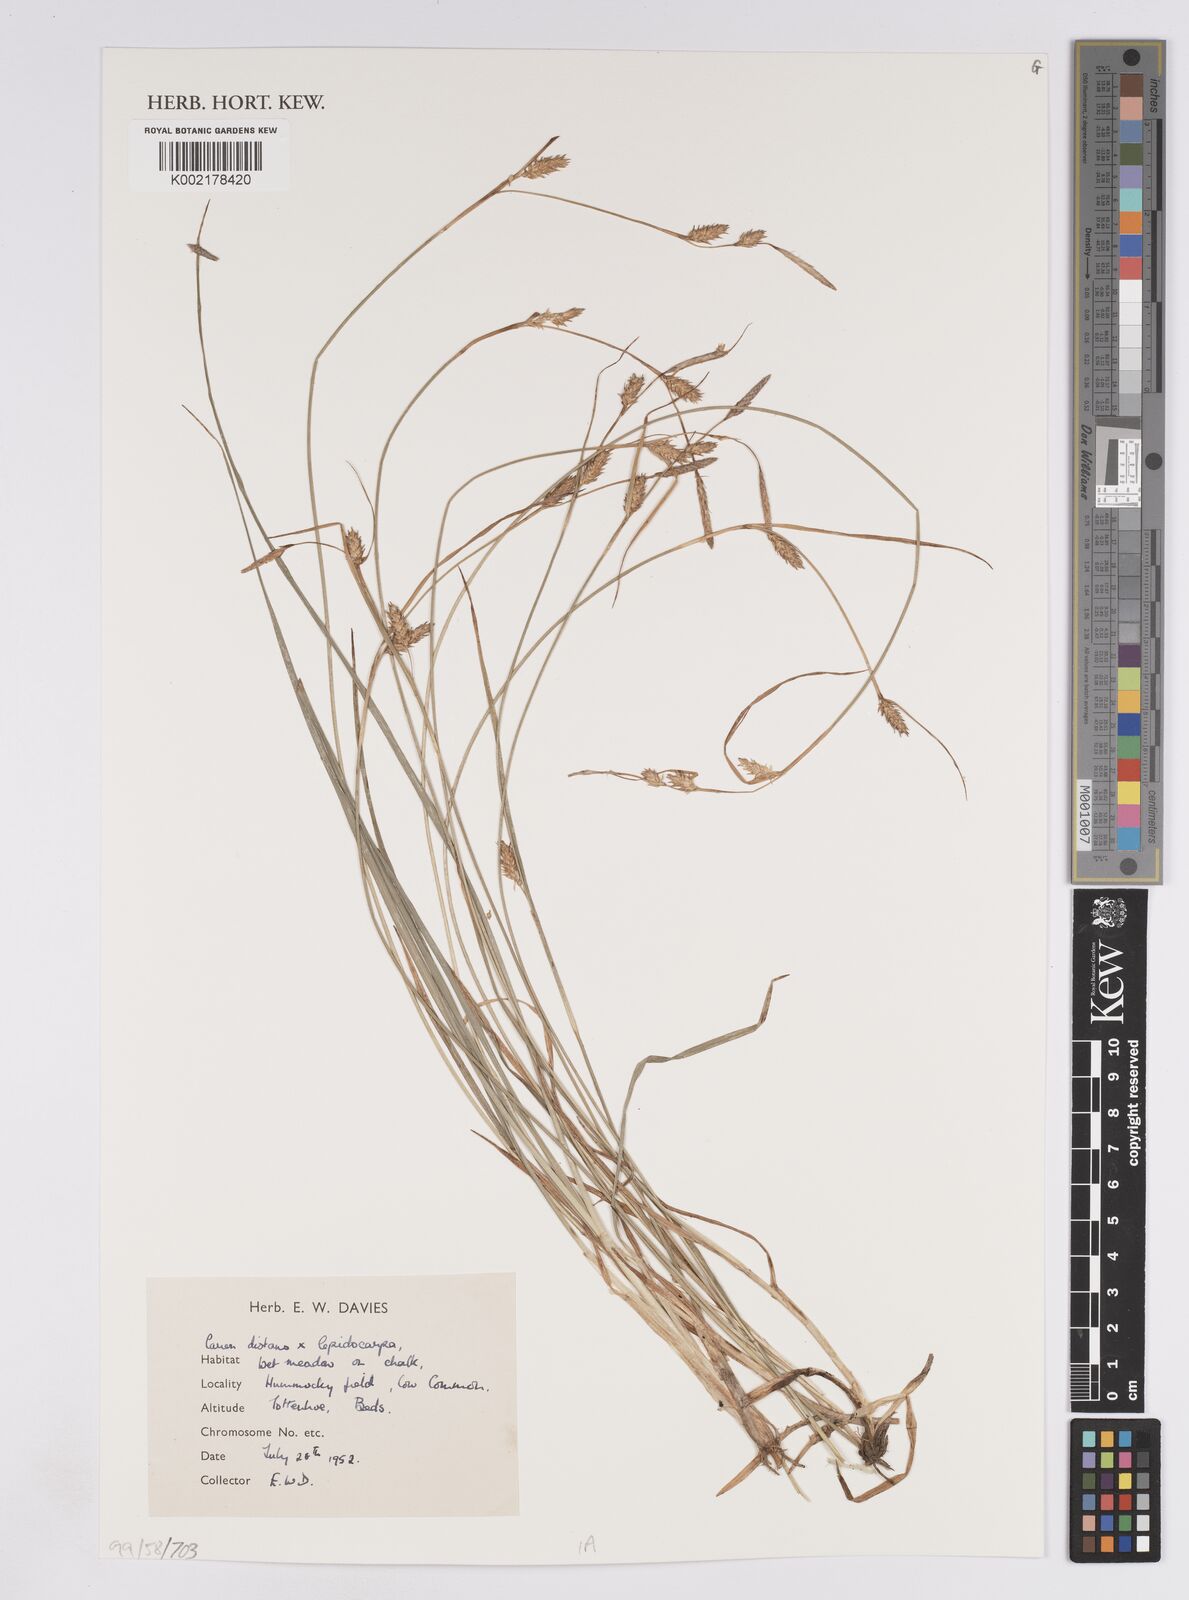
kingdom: Plantae
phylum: Tracheophyta
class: Liliopsida
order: Poales
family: Cyperaceae
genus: Carex
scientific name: Carex lepidocarpa
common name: Long-stalked yellow-sedge
